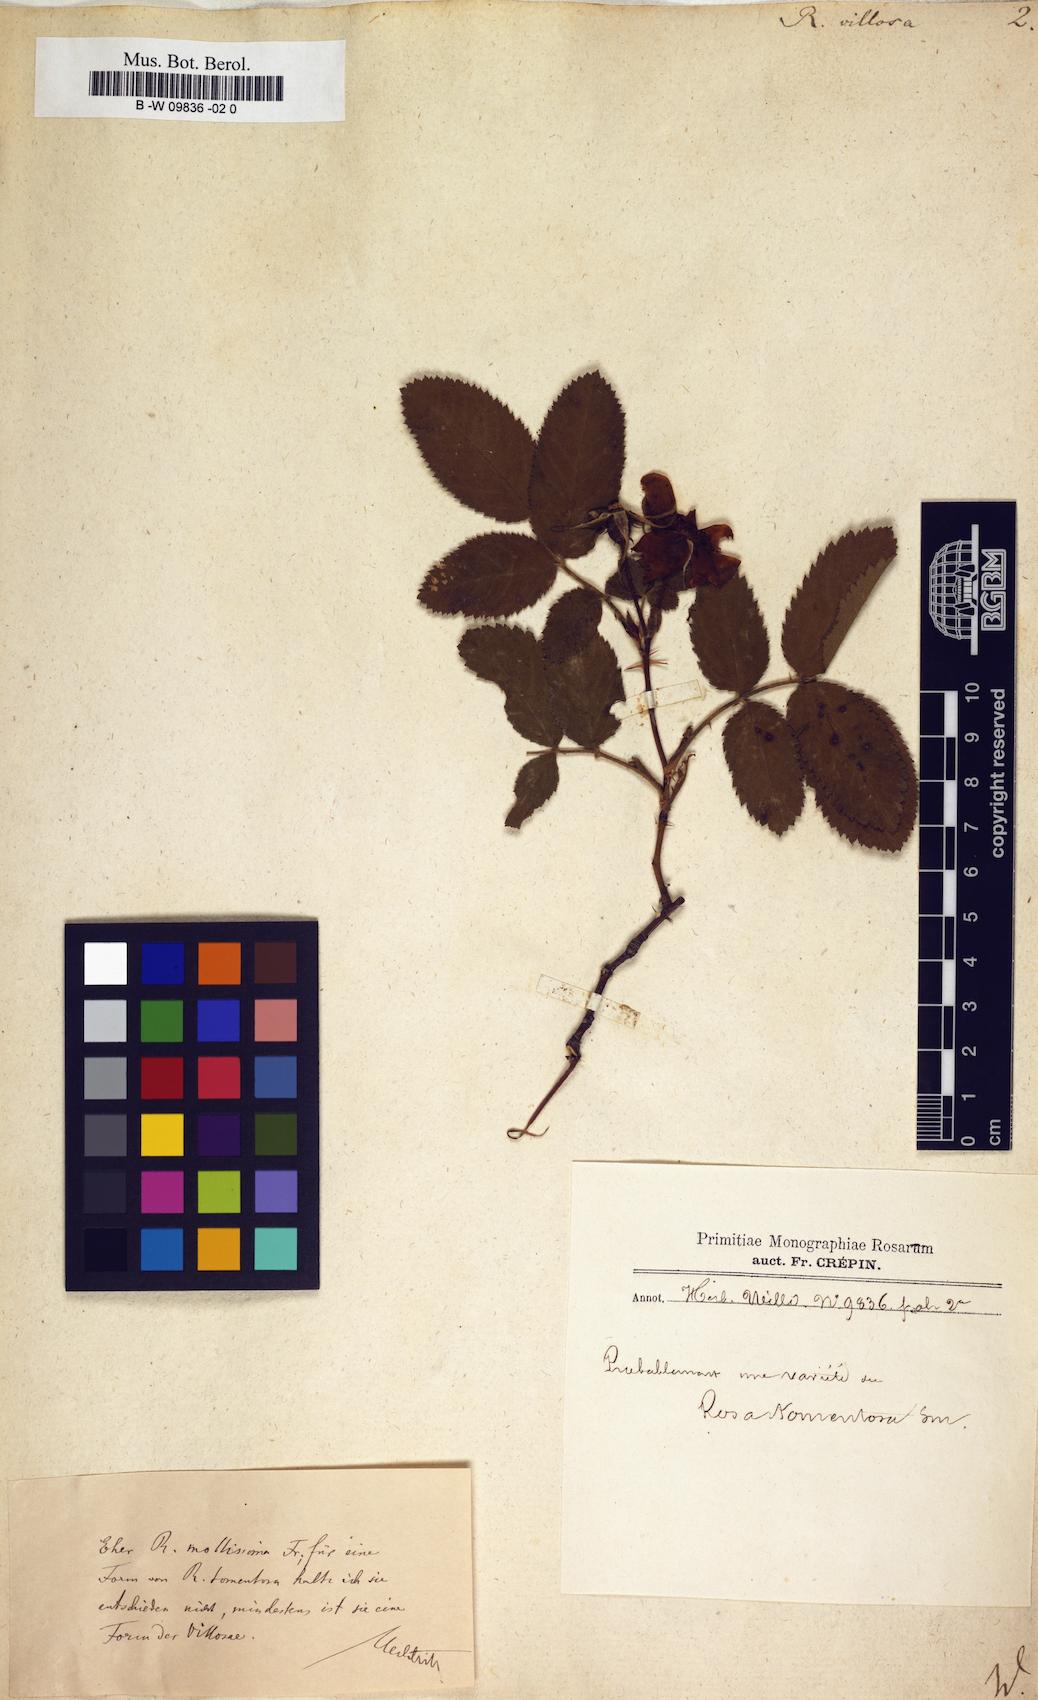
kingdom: Plantae
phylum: Tracheophyta
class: Magnoliopsida
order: Rosales
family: Rosaceae
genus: Rosa
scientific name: Rosa villosa
